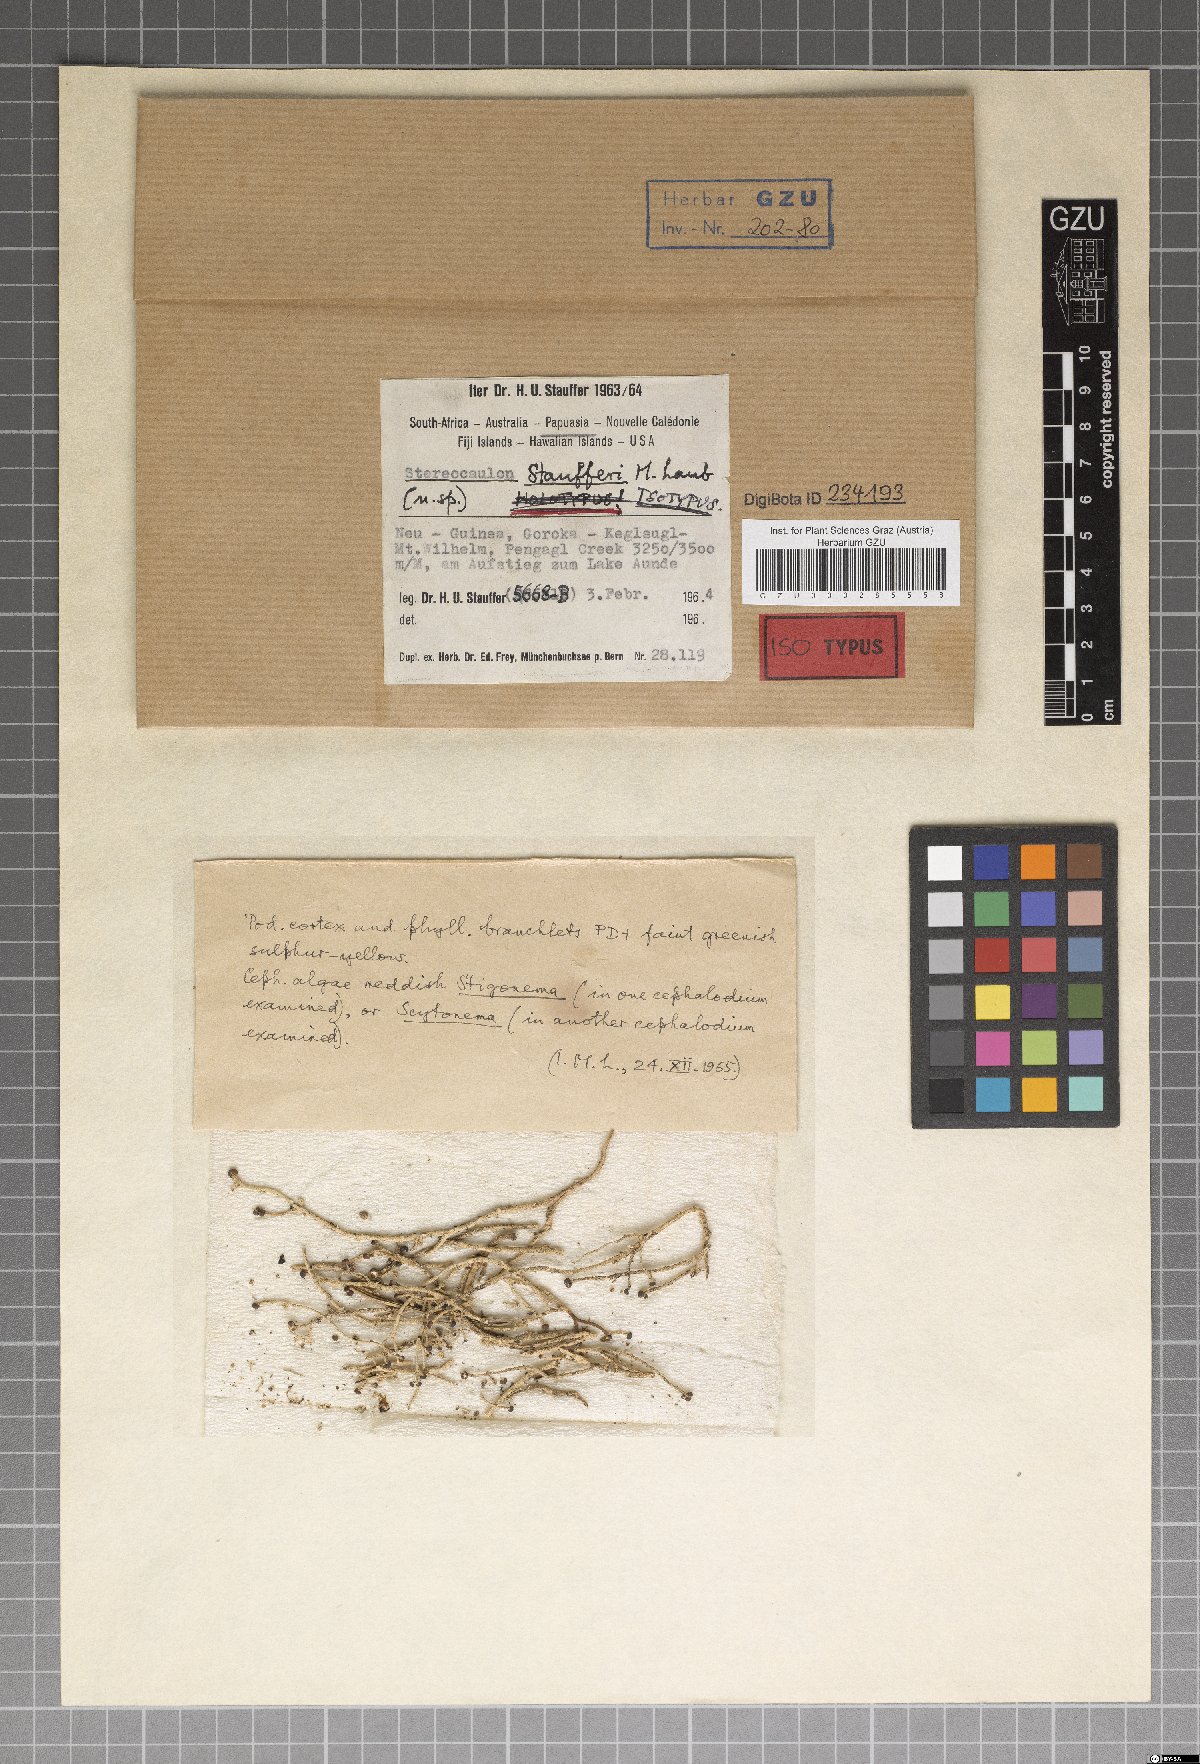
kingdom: Fungi
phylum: Ascomycota
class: Lecanoromycetes
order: Lecanorales
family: Stereocaulaceae
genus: Stereocaulon
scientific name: Stereocaulon
